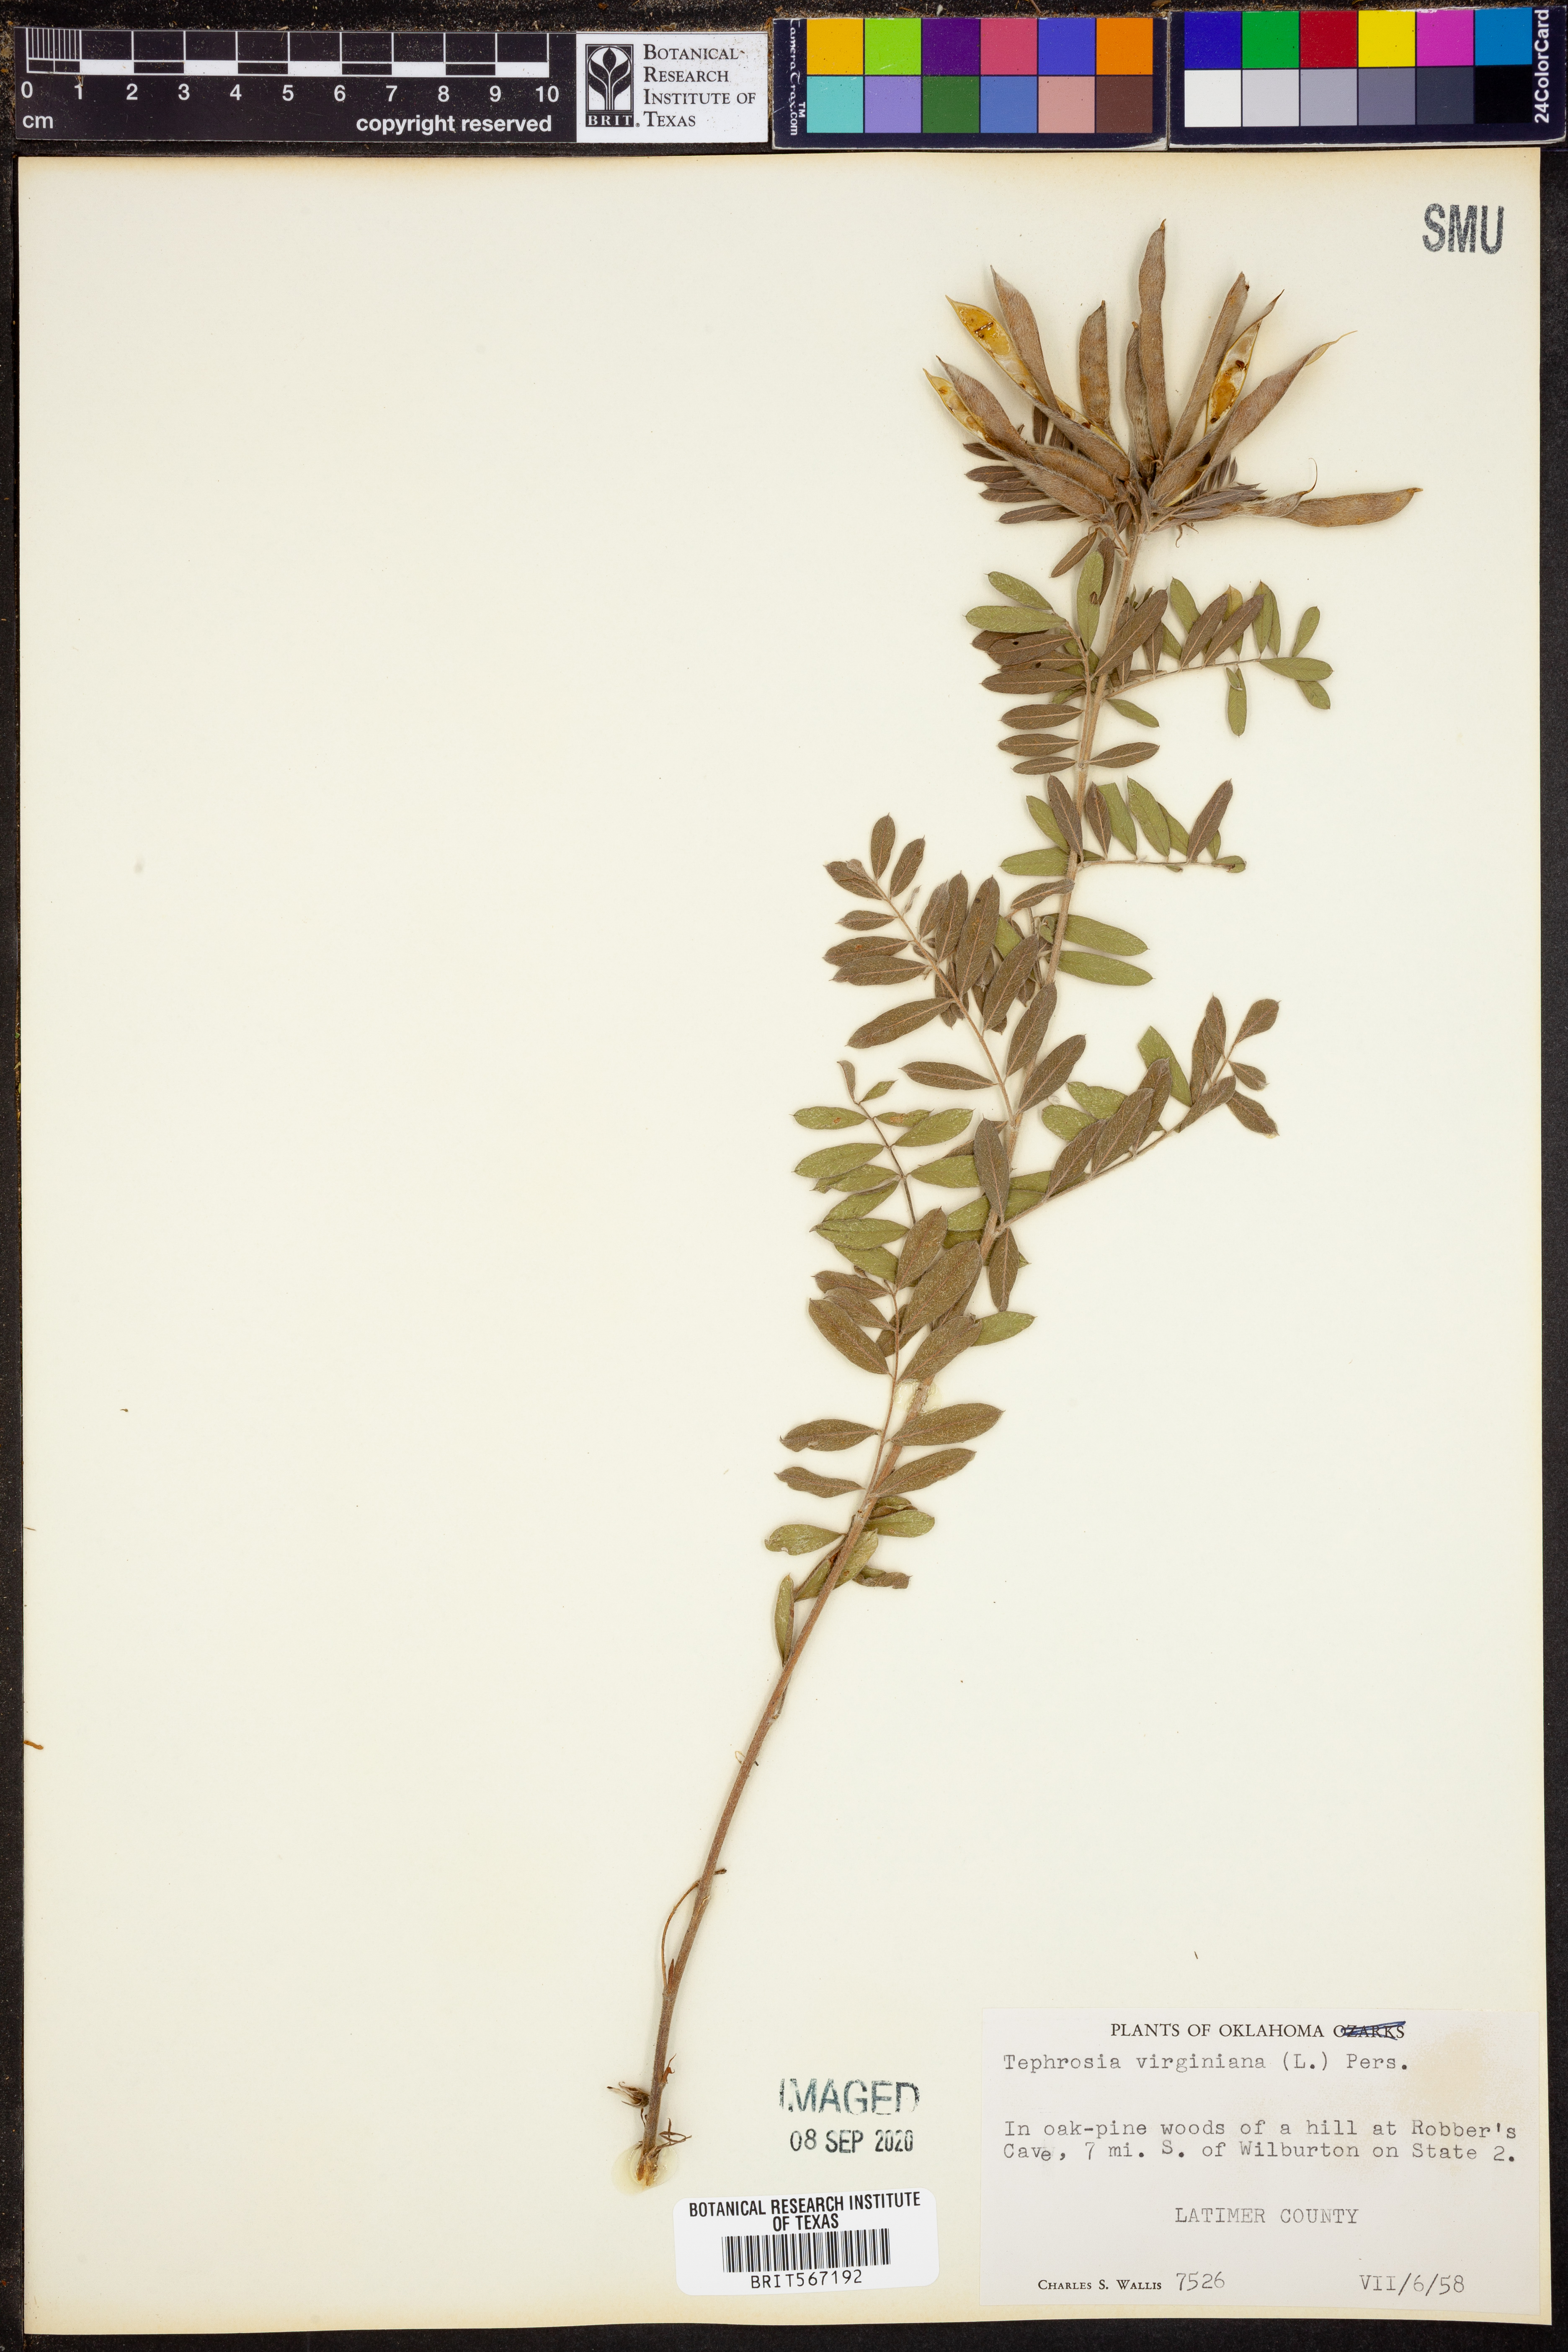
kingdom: Plantae
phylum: Tracheophyta
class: Magnoliopsida
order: Fabales
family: Fabaceae
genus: Tephrosia
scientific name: Tephrosia virginiana
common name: Rabbit-pea
